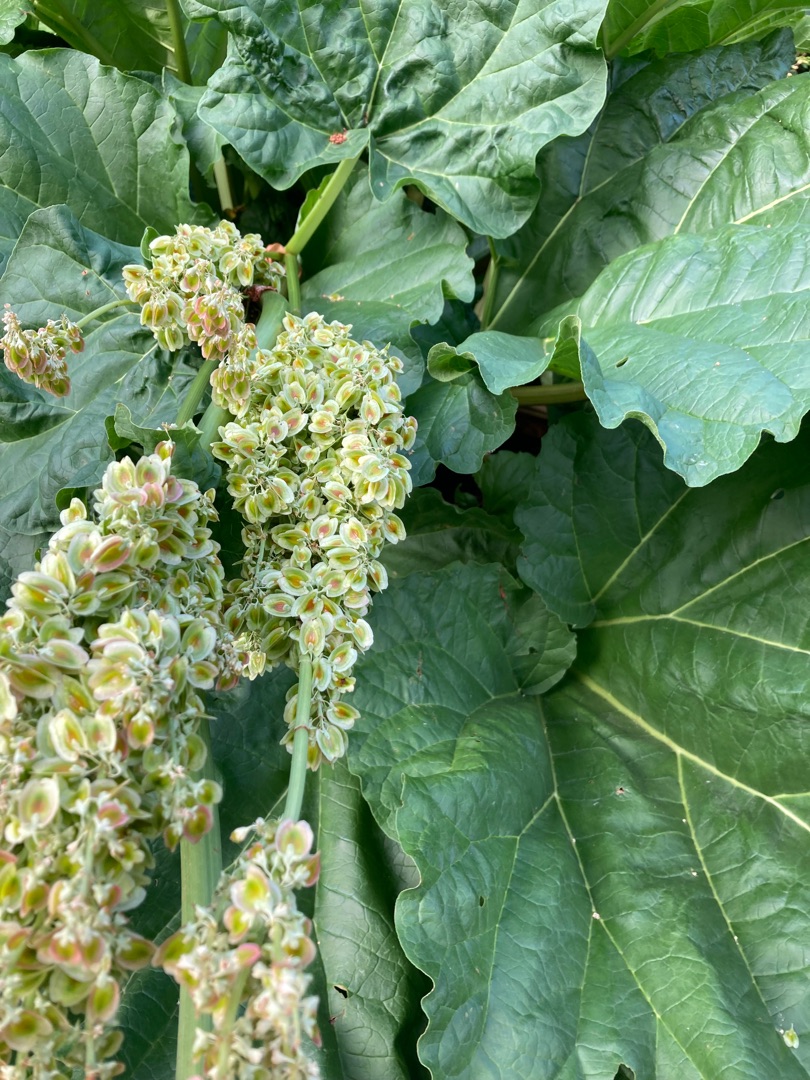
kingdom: Plantae
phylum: Tracheophyta
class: Magnoliopsida
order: Caryophyllales
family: Polygonaceae
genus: Rheum
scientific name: Rheum rhabarbarum
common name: Rabarber
